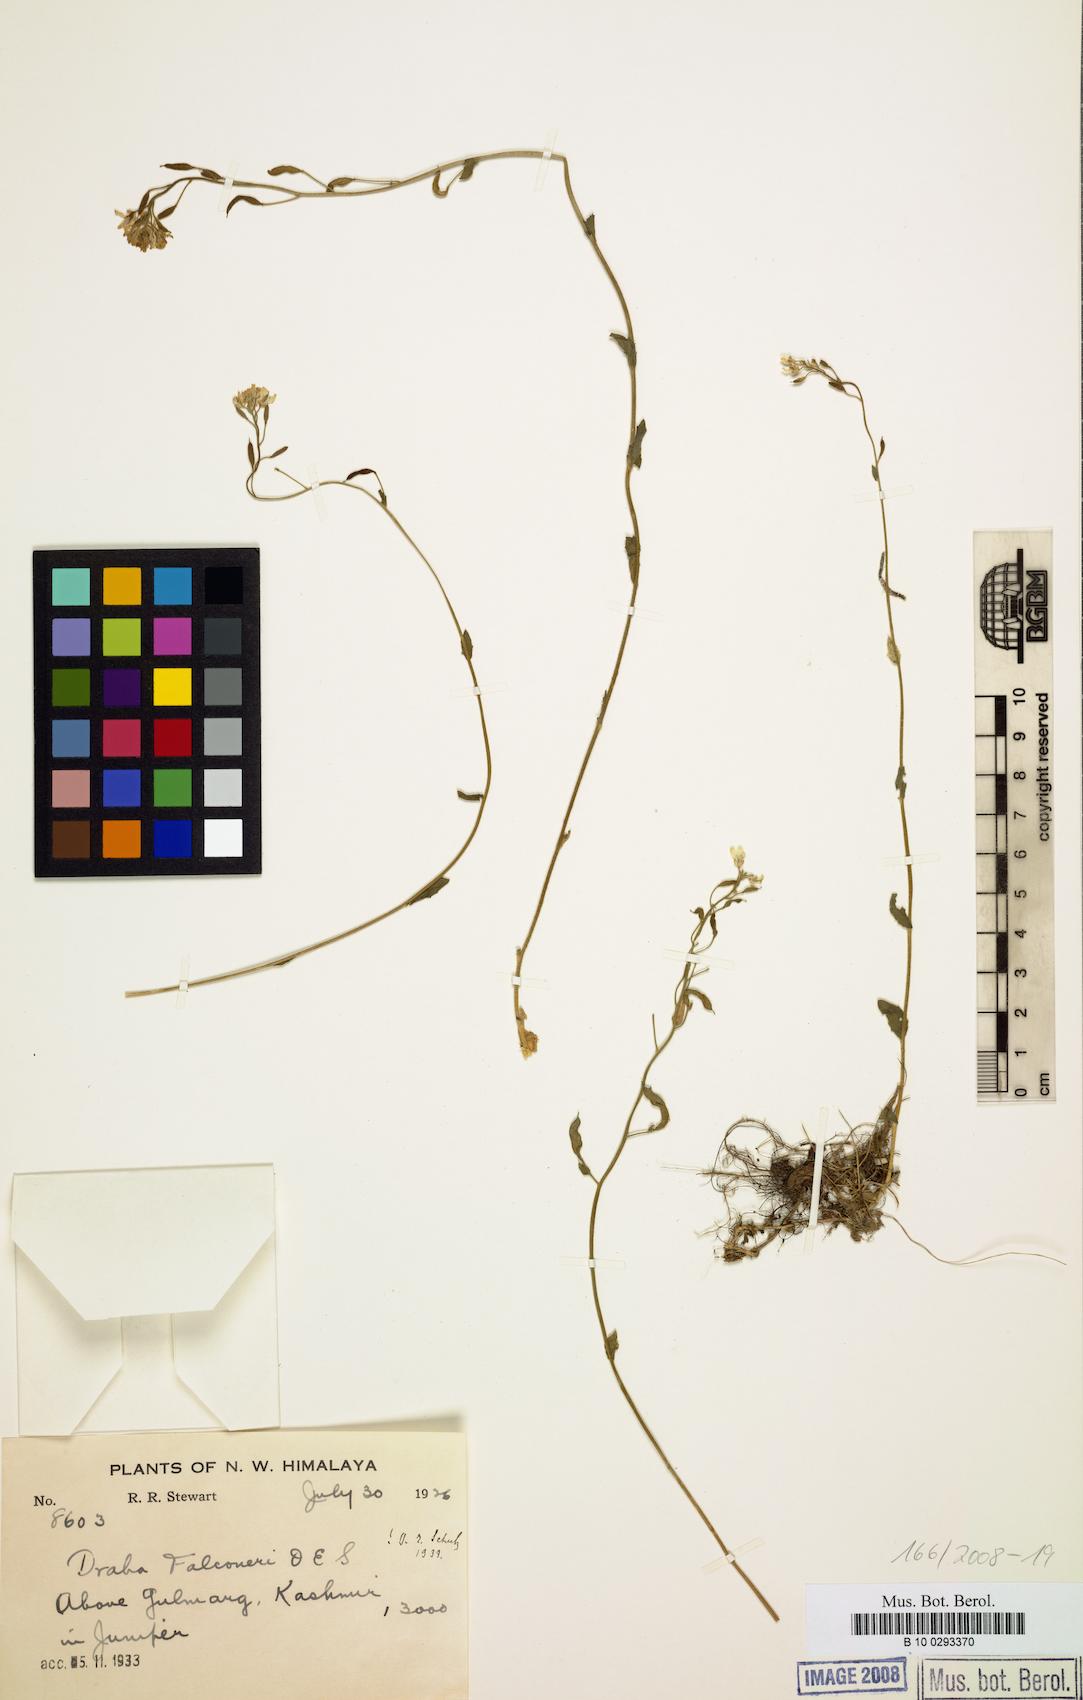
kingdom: Plantae
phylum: Tracheophyta
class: Magnoliopsida
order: Brassicales
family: Brassicaceae
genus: Draba
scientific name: Draba falconeri
